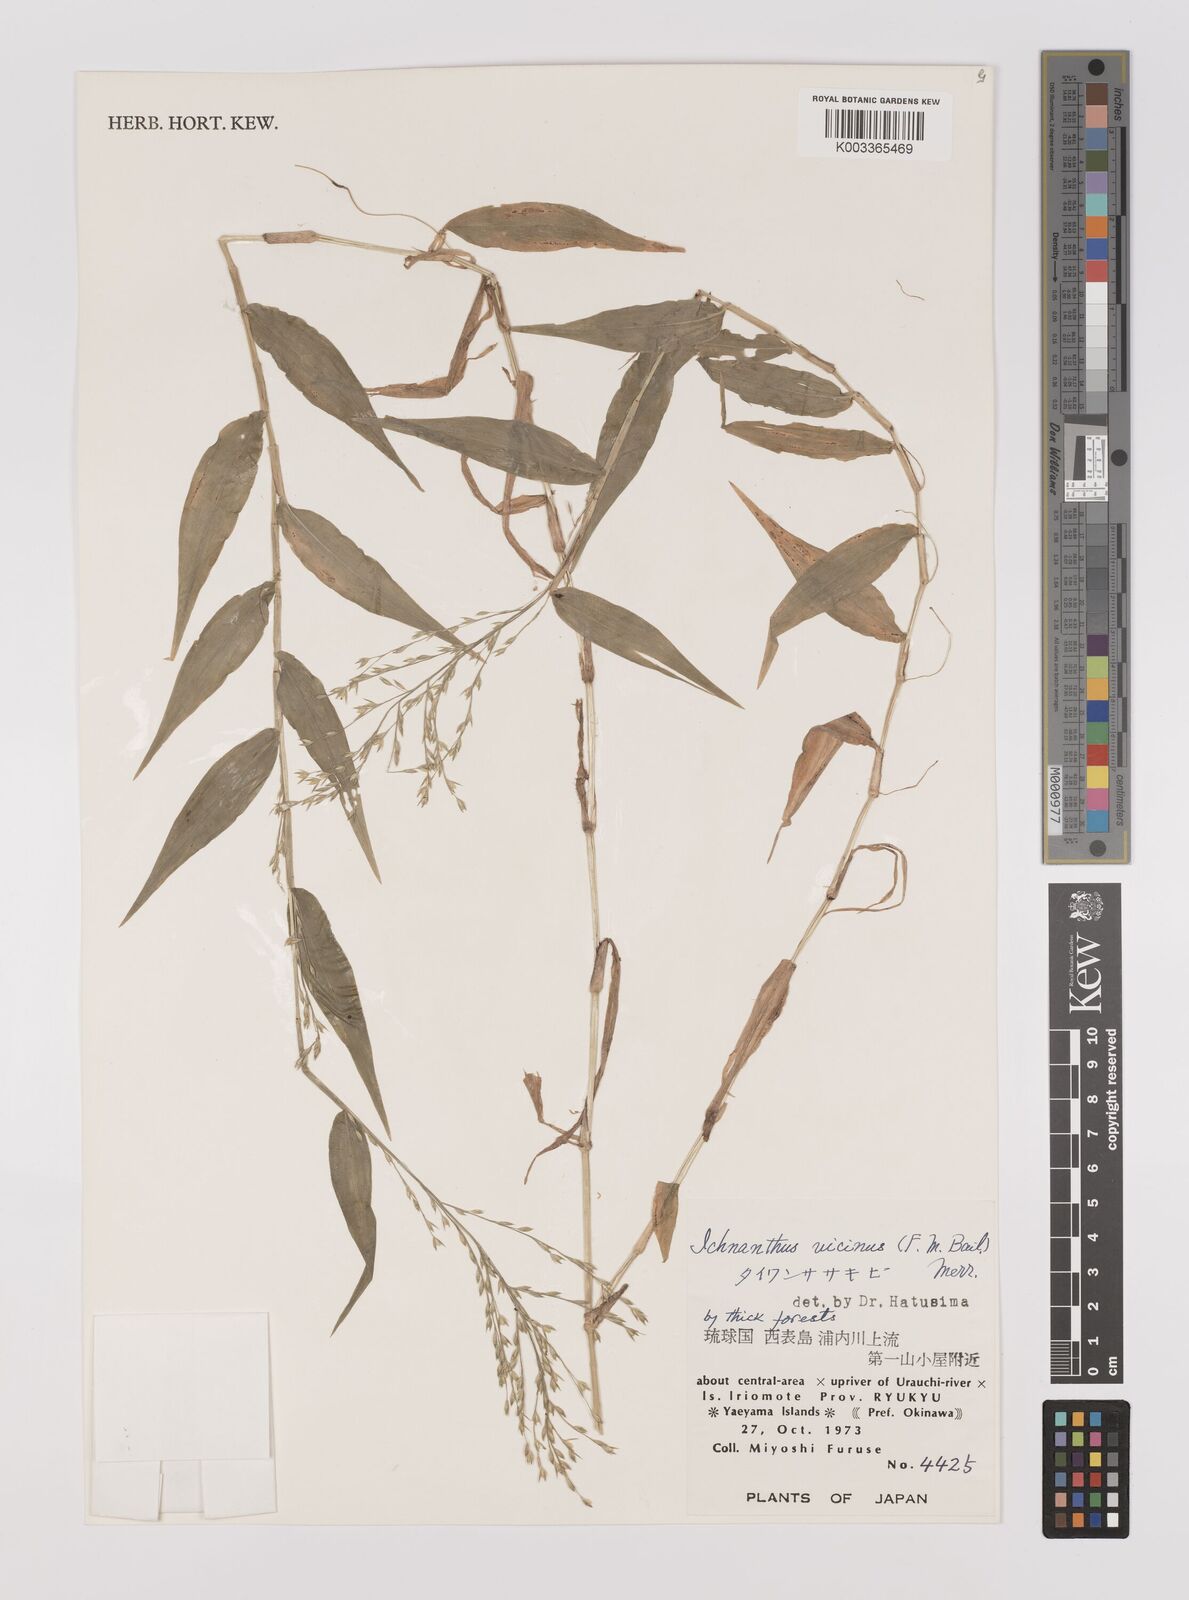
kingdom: Plantae
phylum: Tracheophyta
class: Liliopsida
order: Poales
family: Poaceae
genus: Ichnanthus
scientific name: Ichnanthus pallens
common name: Water grass
